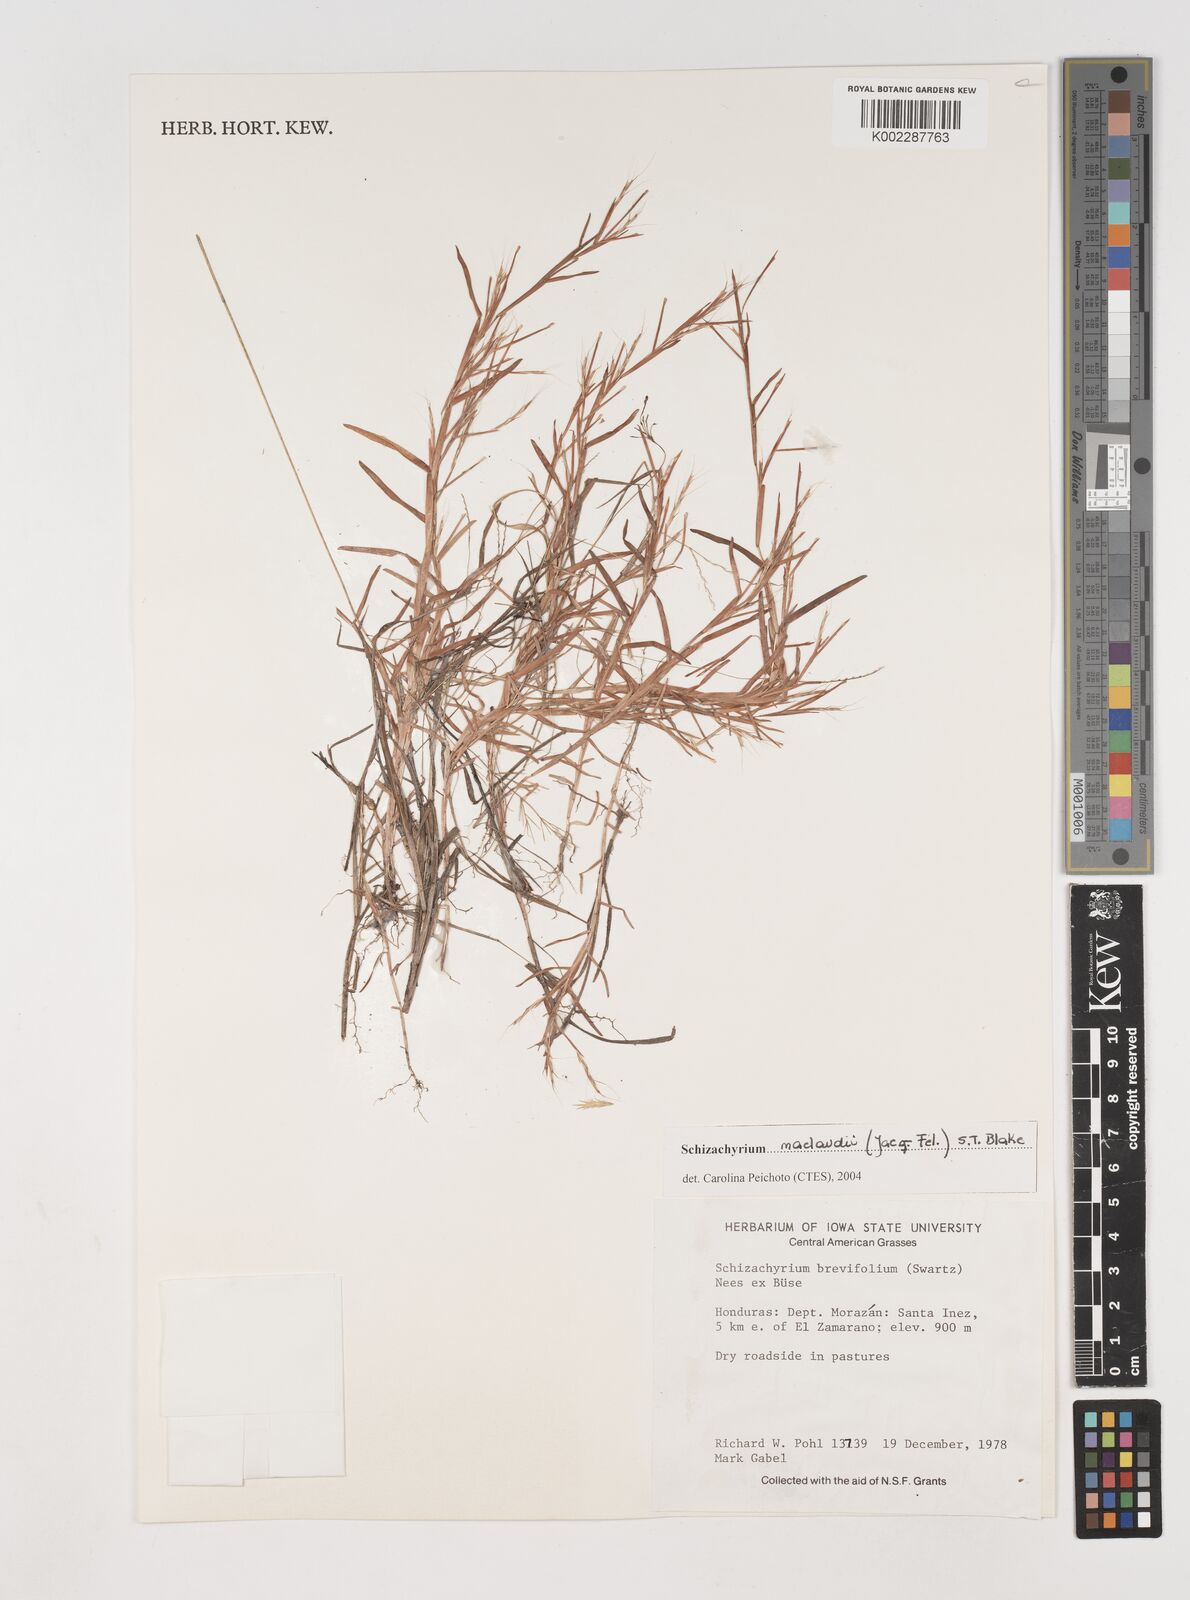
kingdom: Plantae
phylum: Tracheophyta
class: Liliopsida
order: Poales
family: Poaceae
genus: Schizachyrium
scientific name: Schizachyrium maclaudii
